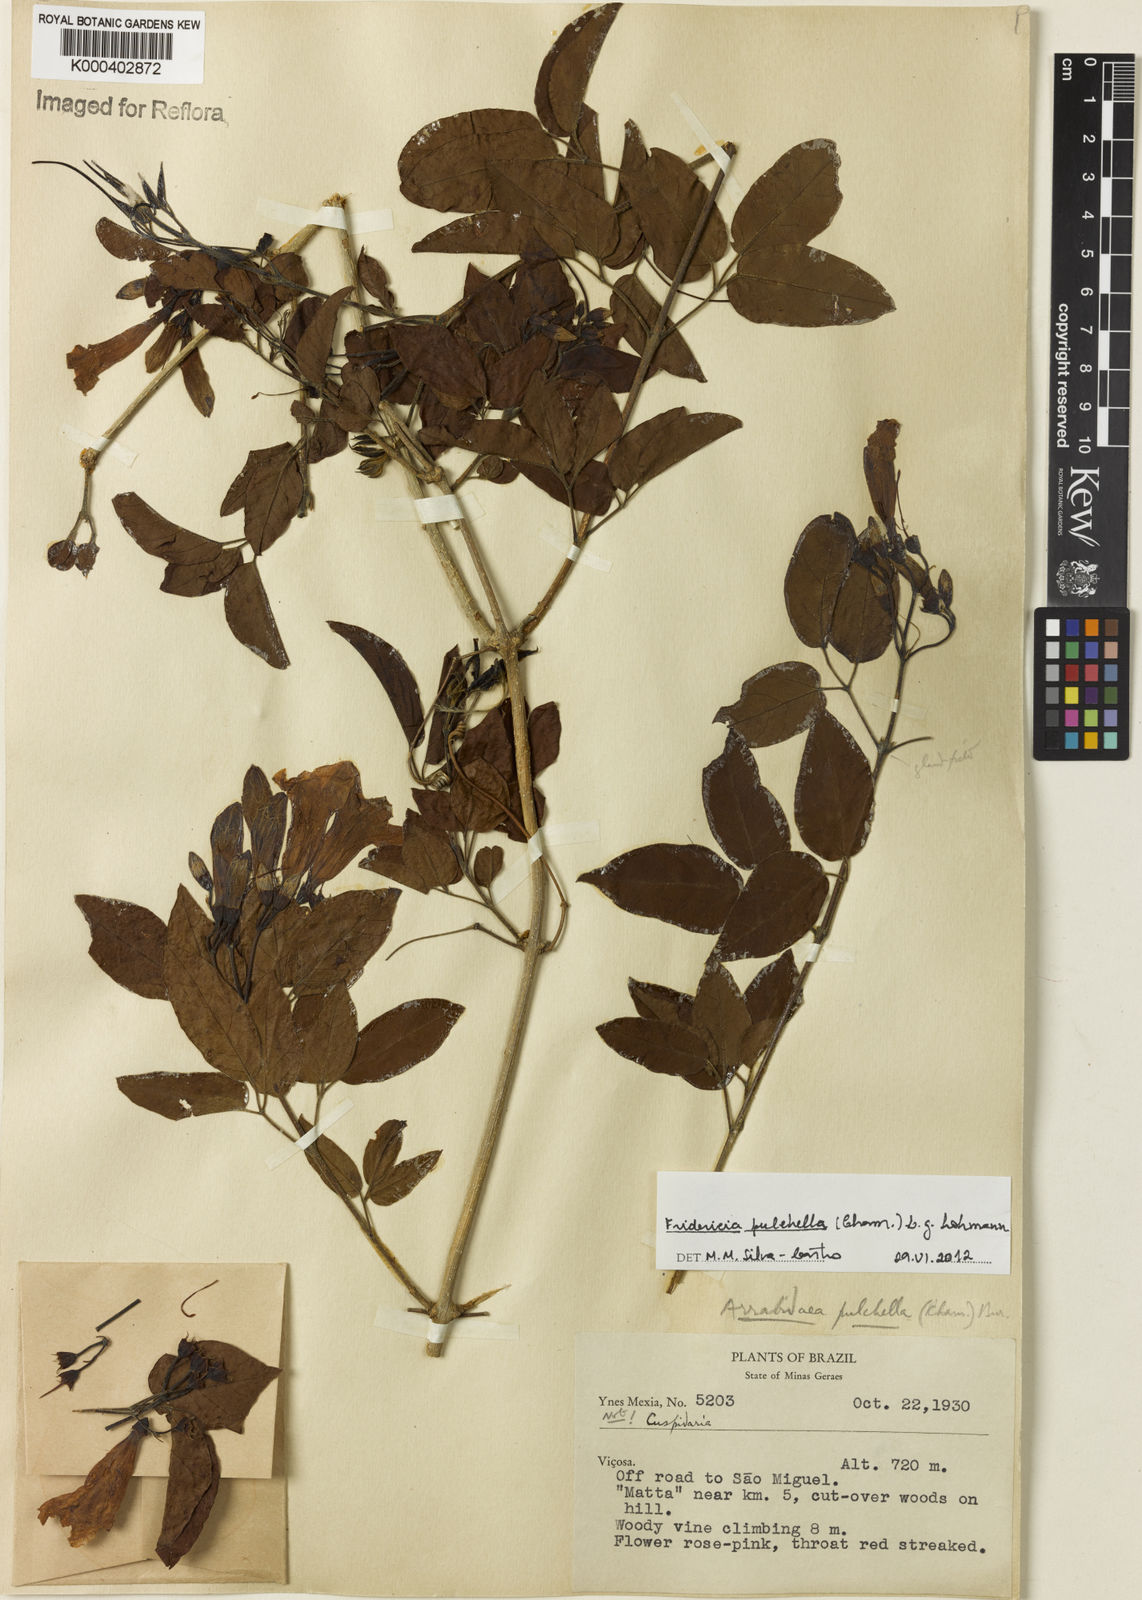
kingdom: Plantae
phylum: Tracheophyta
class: Magnoliopsida
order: Lamiales
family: Bignoniaceae
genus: Fridericia
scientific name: Fridericia
